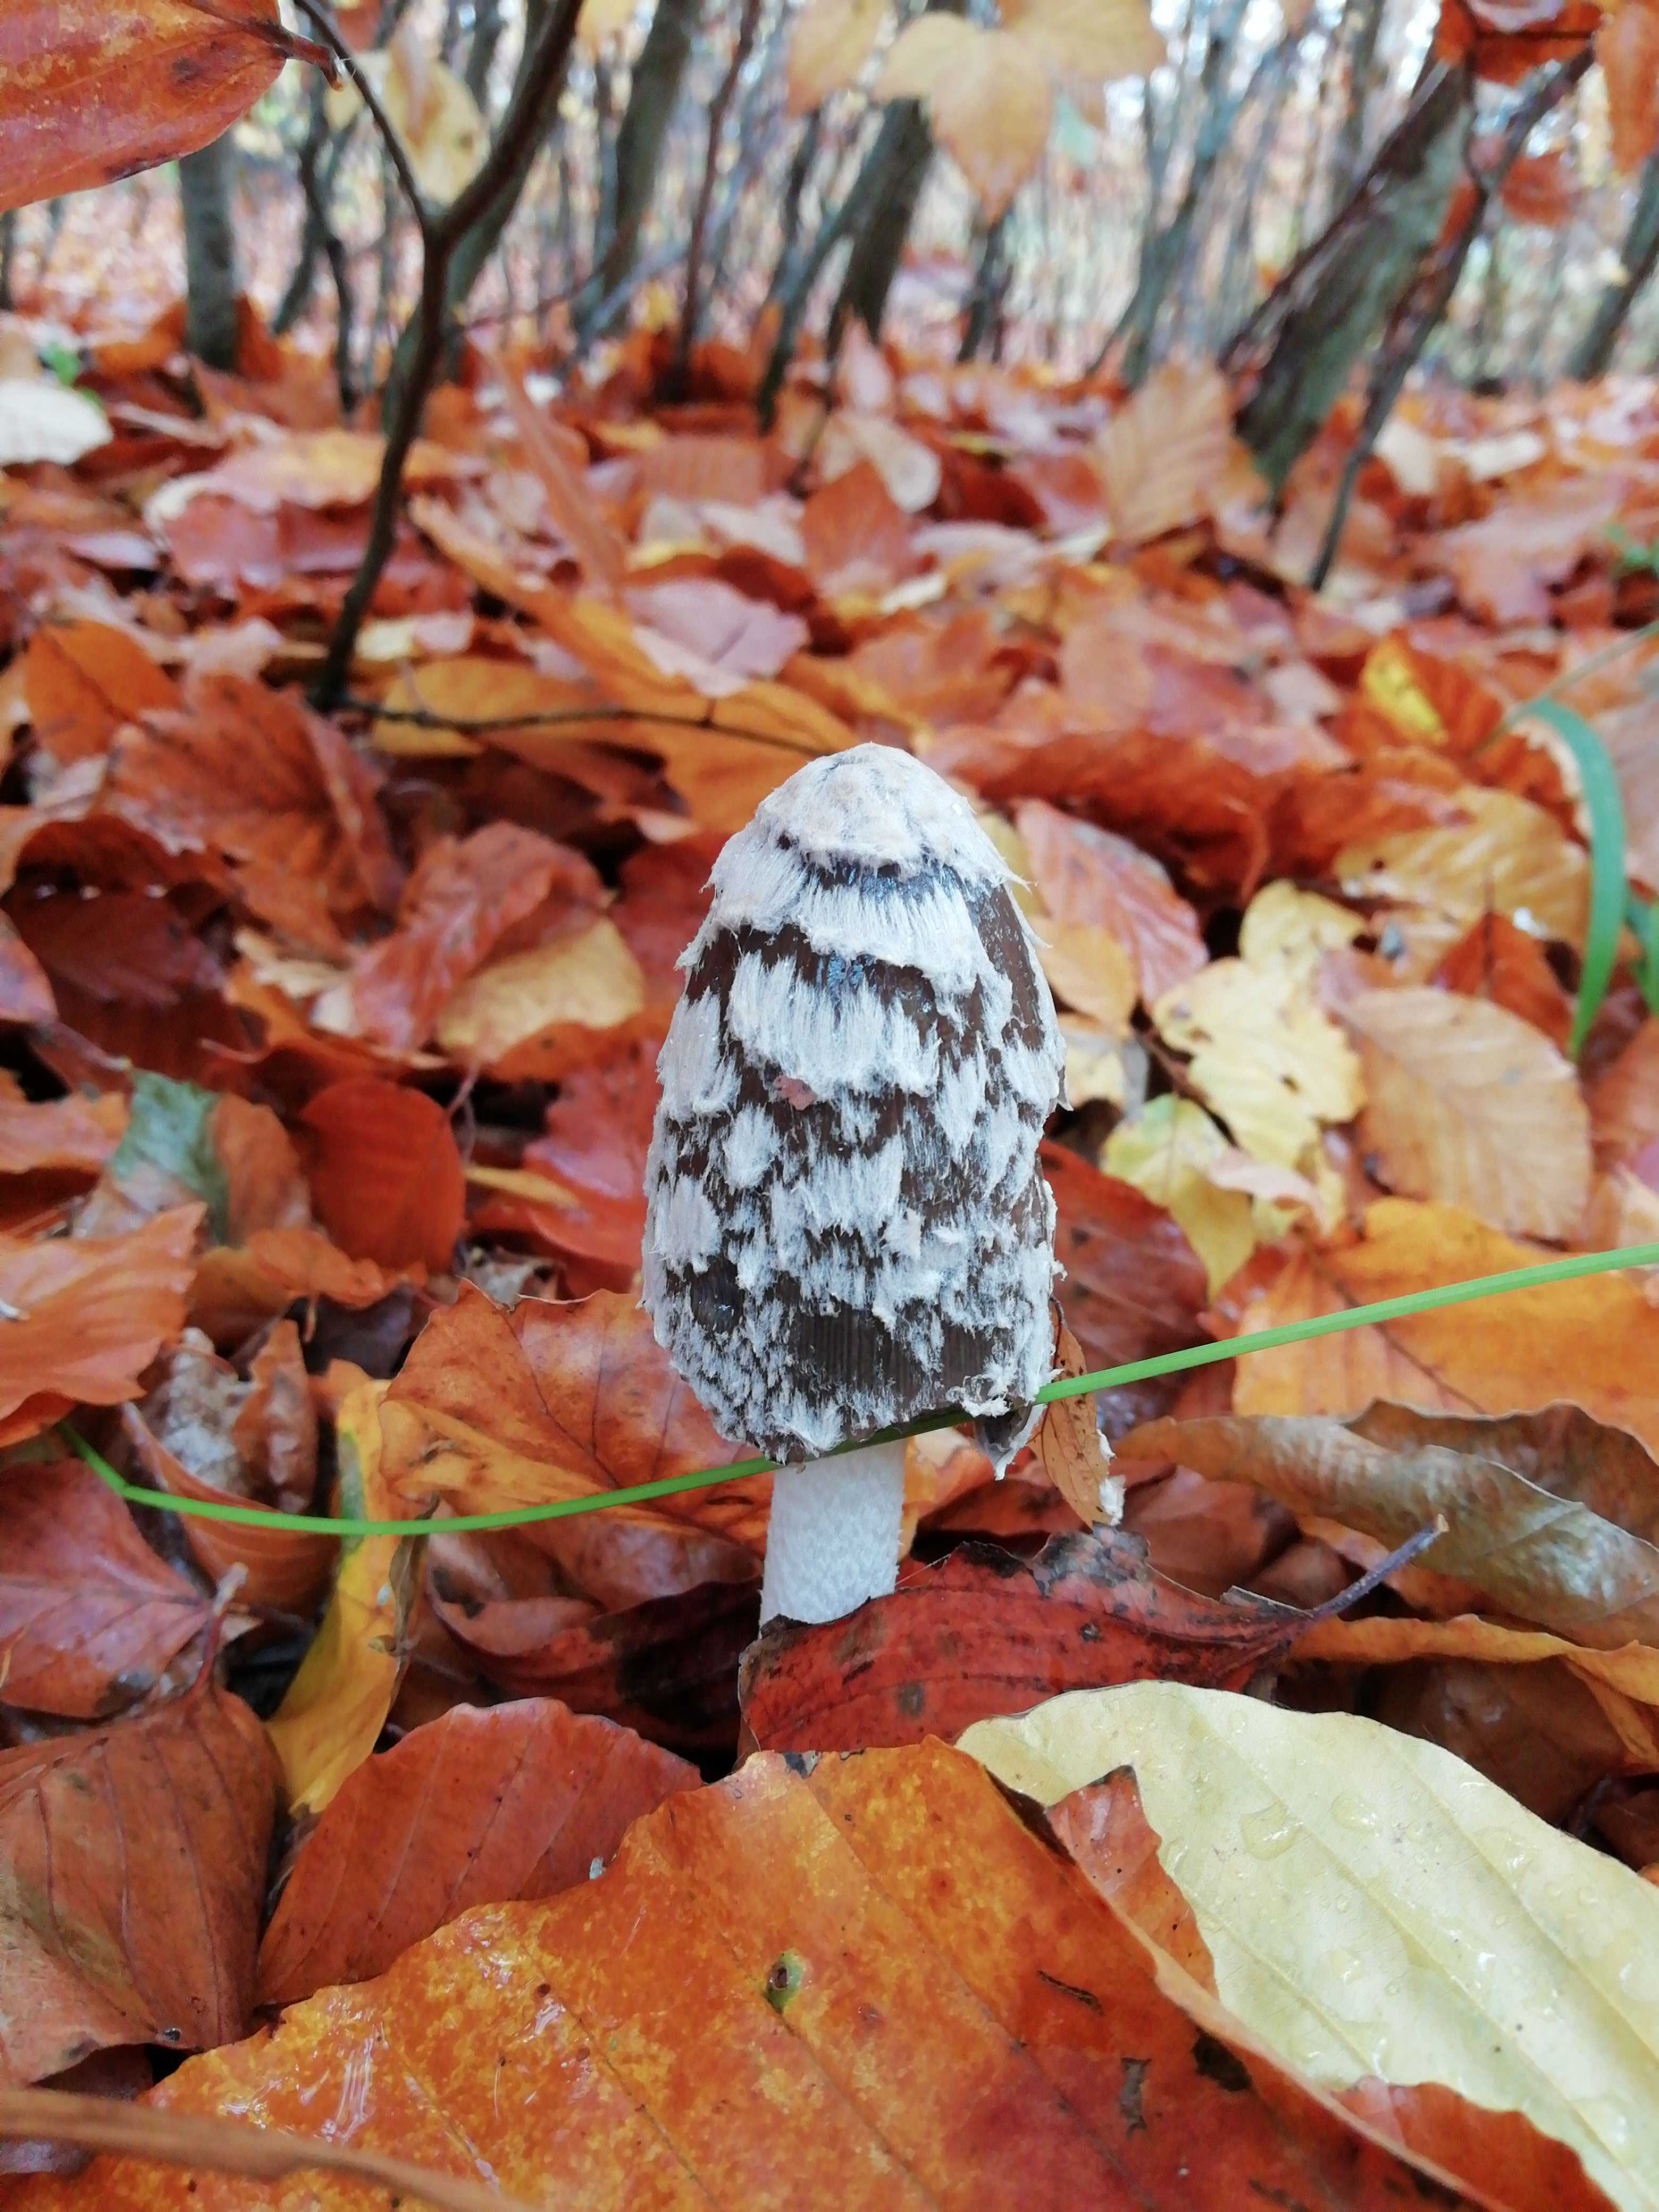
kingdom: Fungi
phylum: Basidiomycota
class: Agaricomycetes
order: Agaricales
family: Psathyrellaceae
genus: Coprinopsis
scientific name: Coprinopsis picacea
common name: skade-blækhat
